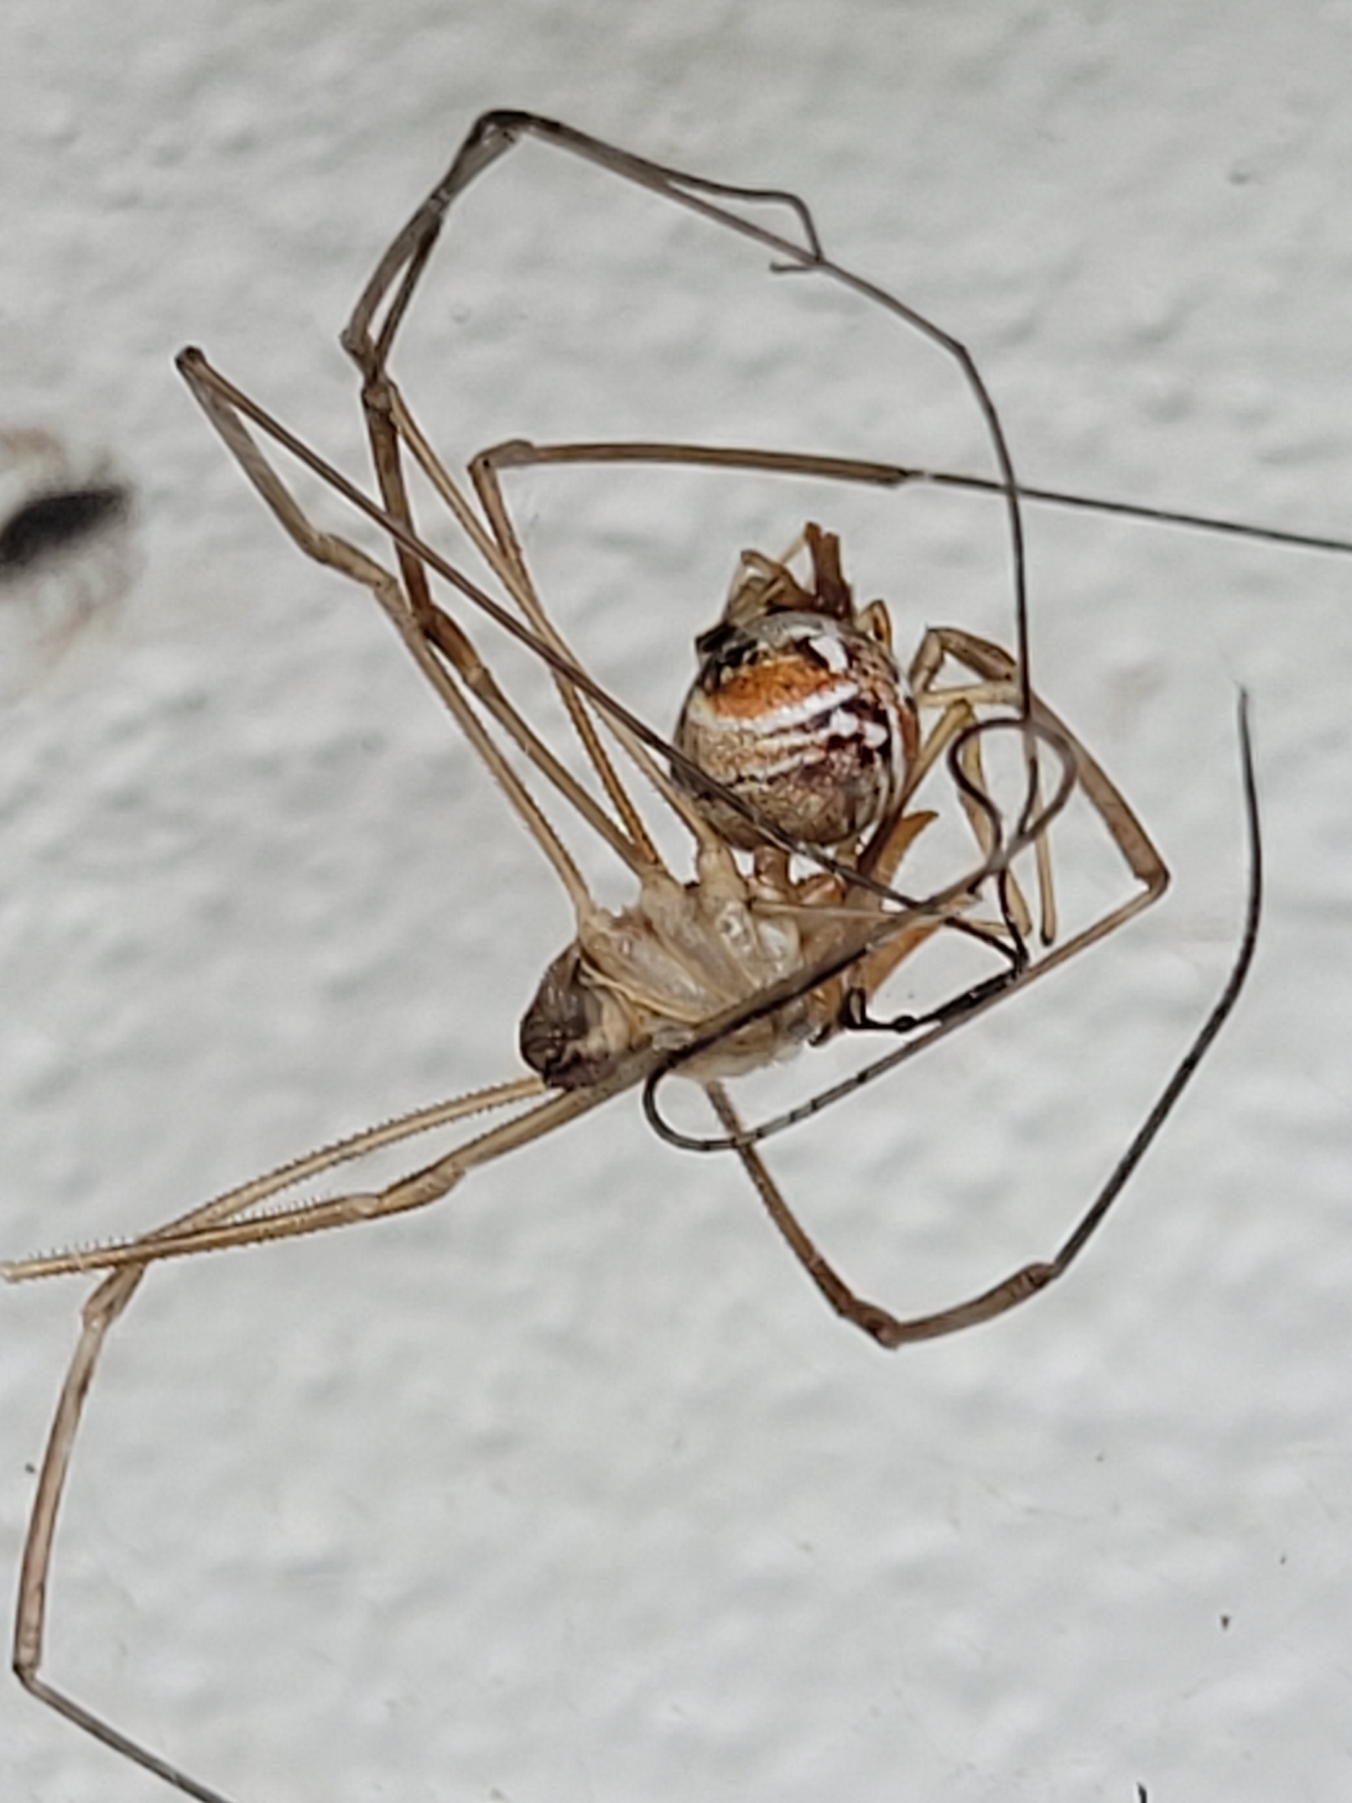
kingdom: Animalia
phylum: Arthropoda
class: Arachnida
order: Araneae
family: Theridiidae
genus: Parasteatoda
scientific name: Parasteatoda lunata
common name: Bladhyttespinder
